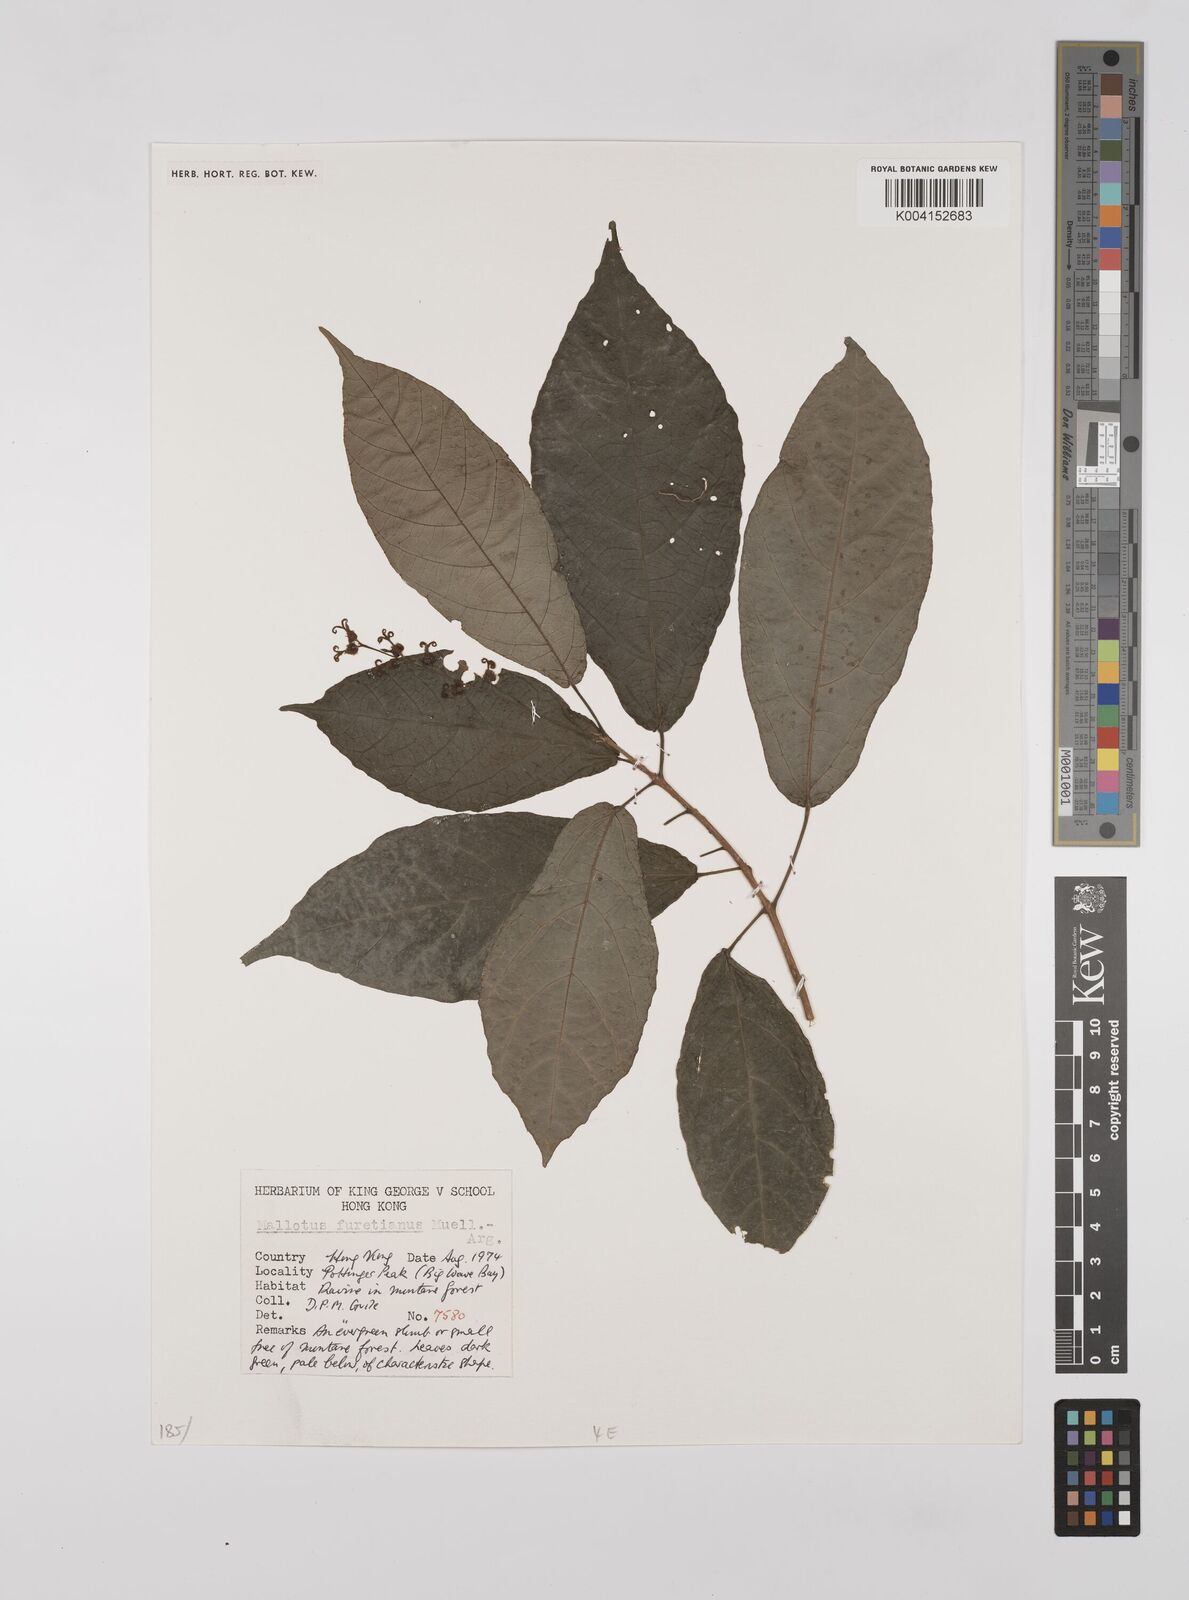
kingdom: Plantae
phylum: Tracheophyta
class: Magnoliopsida
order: Malpighiales
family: Euphorbiaceae
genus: Mallotus
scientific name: Mallotus peltatus
